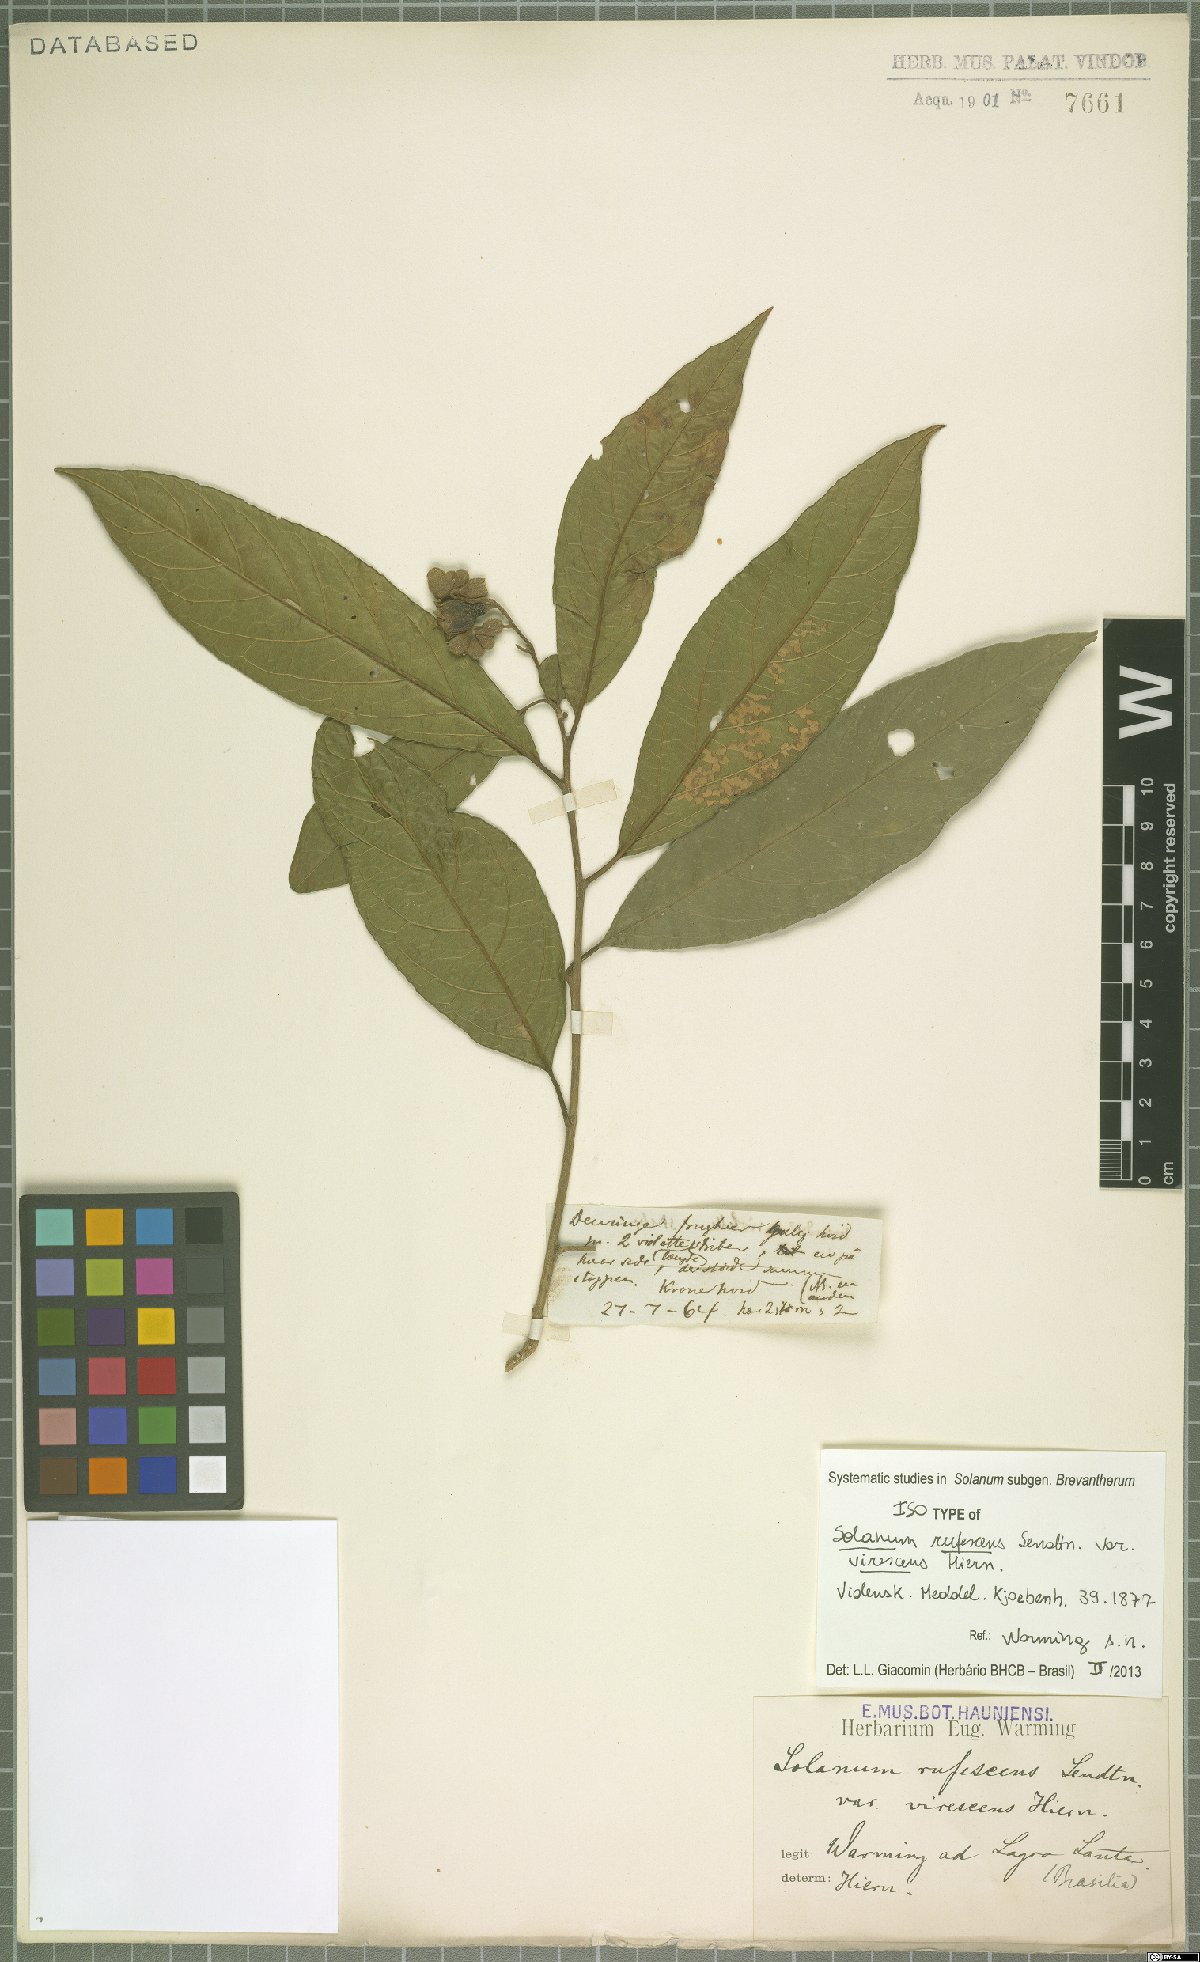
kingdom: Plantae
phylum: Tracheophyta
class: Magnoliopsida
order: Solanales
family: Solanaceae
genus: Solanum
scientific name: Solanum rufescens
